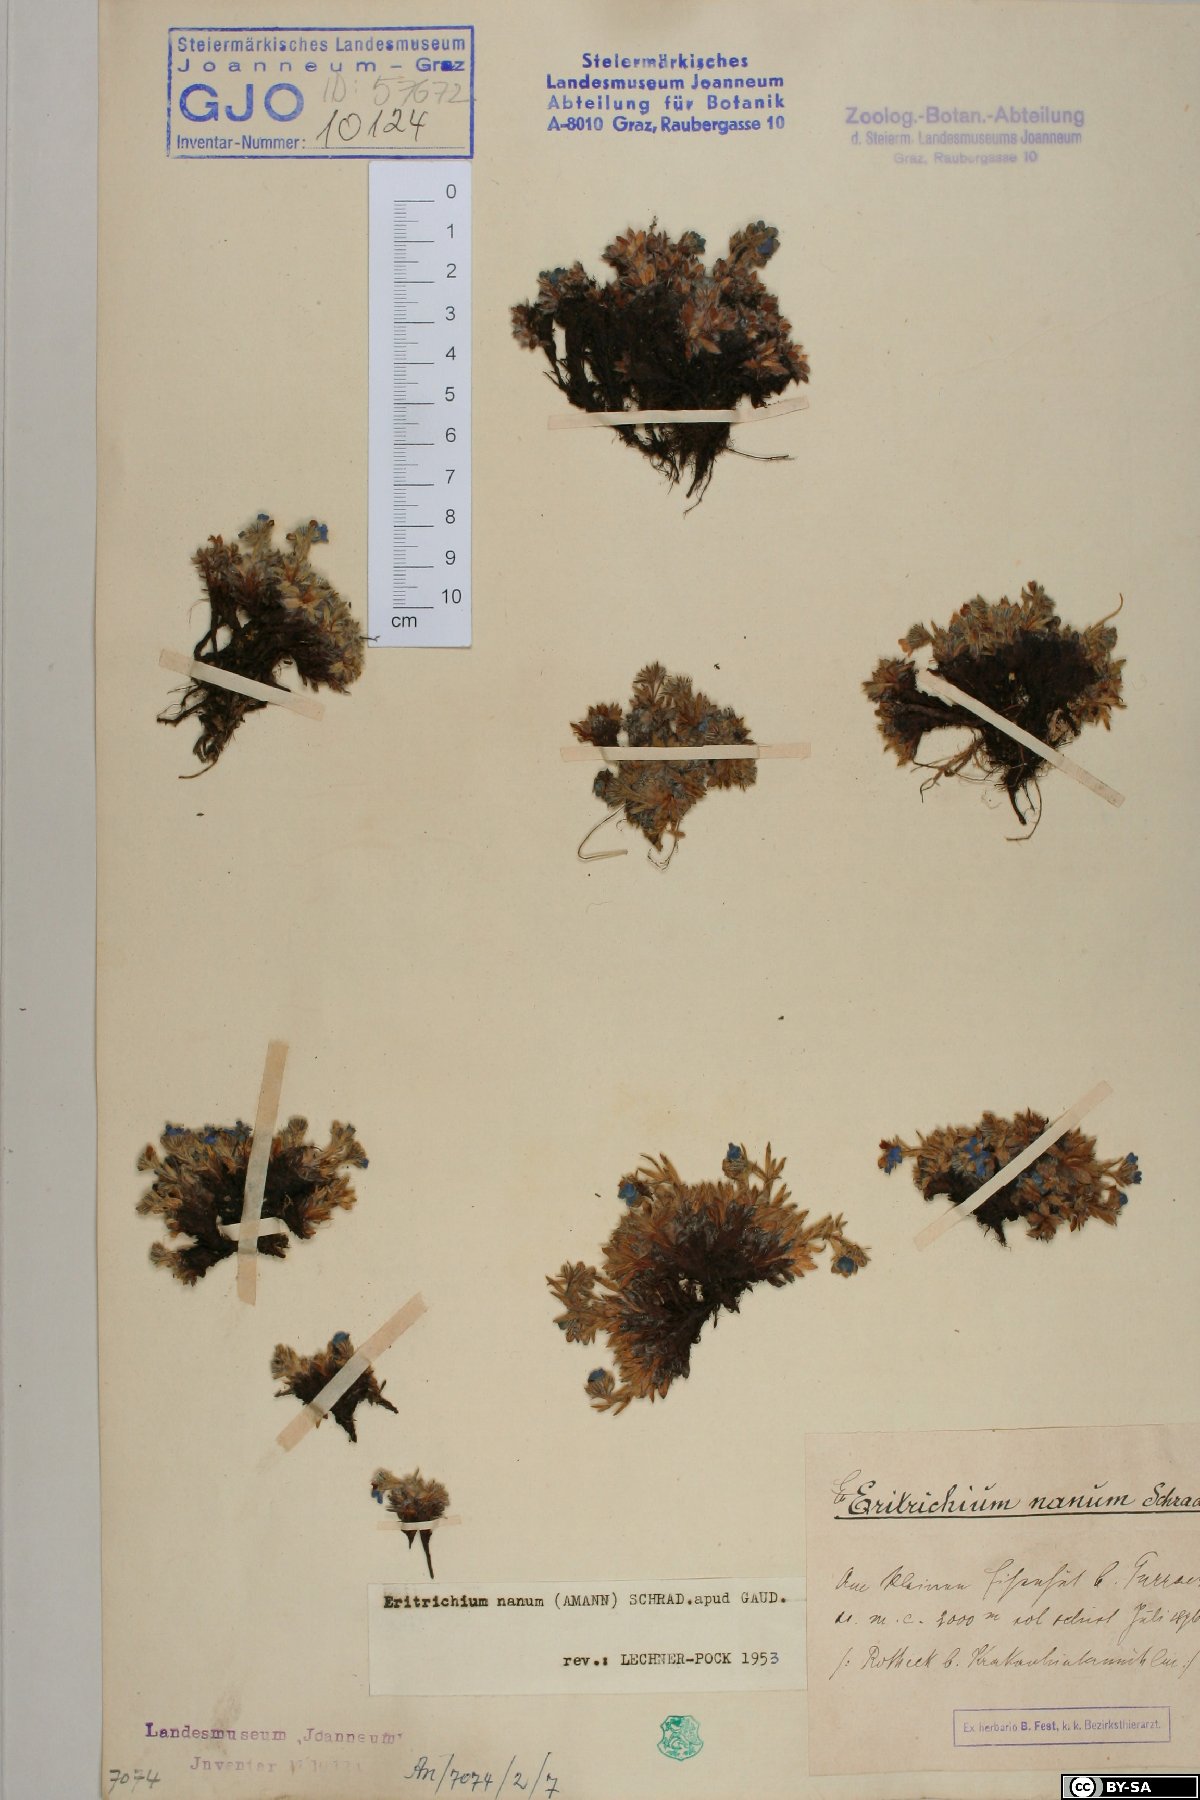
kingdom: Plantae
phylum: Tracheophyta
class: Magnoliopsida
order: Boraginales
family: Boraginaceae
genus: Eritrichium
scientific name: Eritrichium nanum
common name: King-of-the-alps
